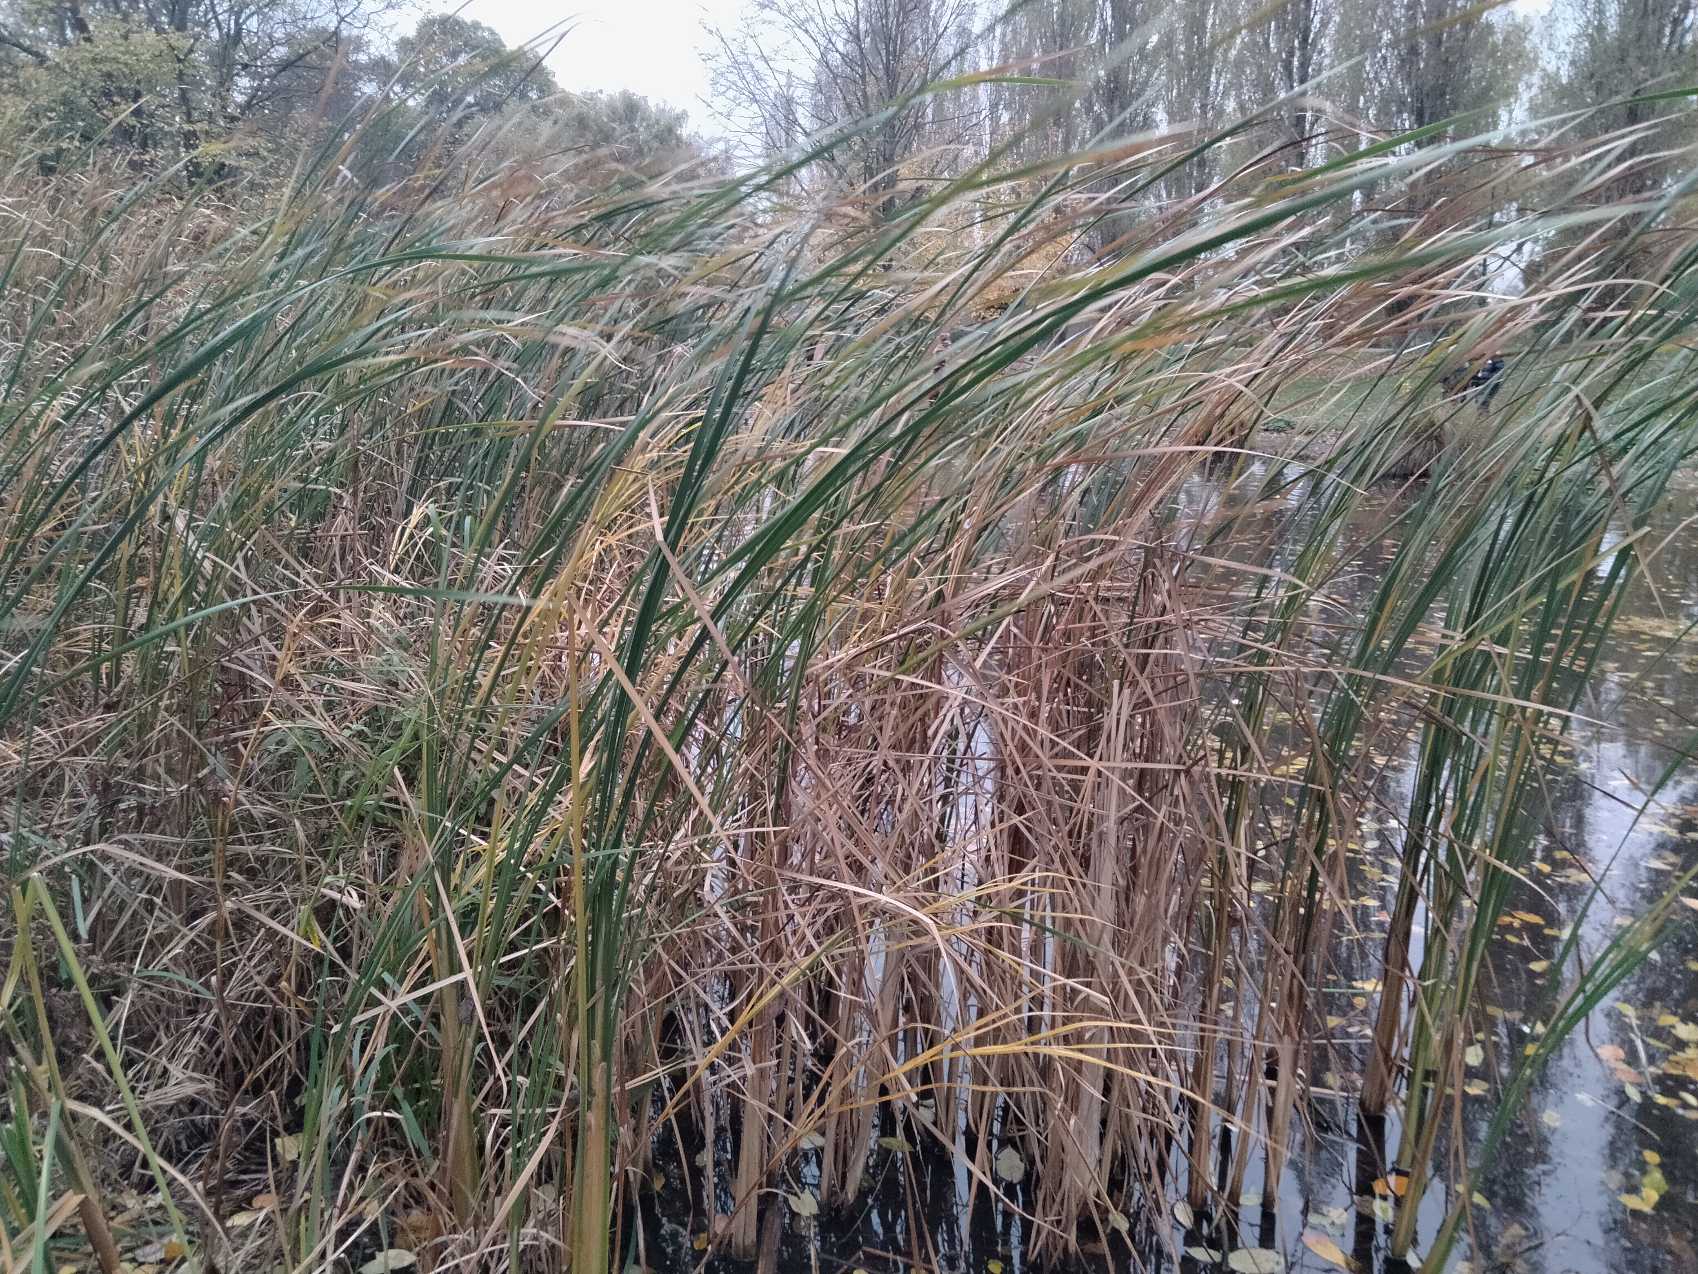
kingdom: Plantae
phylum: Tracheophyta
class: Liliopsida
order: Poales
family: Typhaceae
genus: Typha
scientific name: Typha angustifolia
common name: Smalbladet dunhammer
